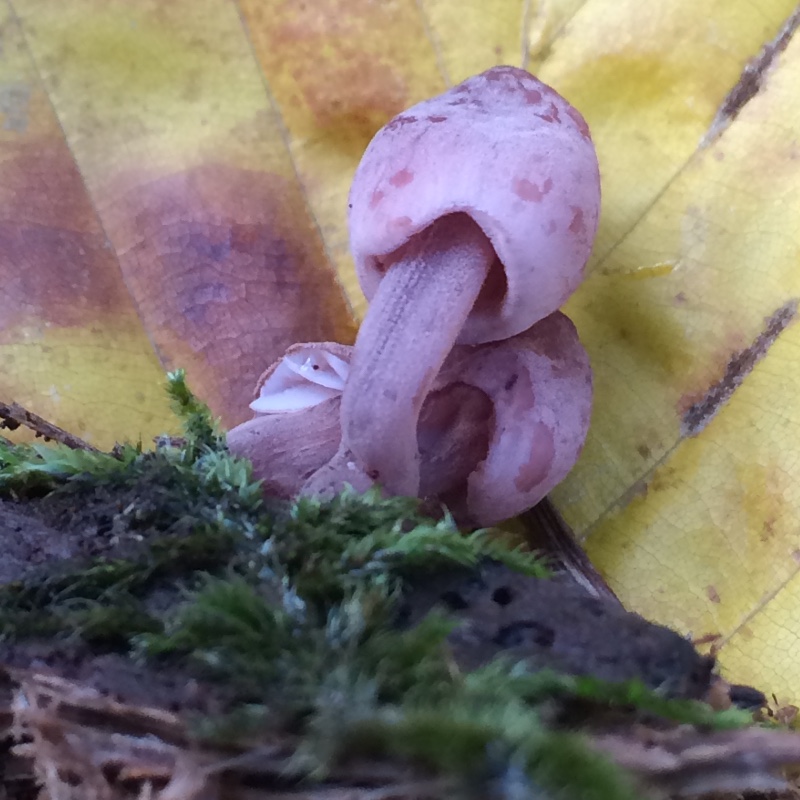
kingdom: Fungi
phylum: Basidiomycota
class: Agaricomycetes
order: Agaricales
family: Mycenaceae
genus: Mycena
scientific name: Mycena haematopus
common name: blødende huesvamp
